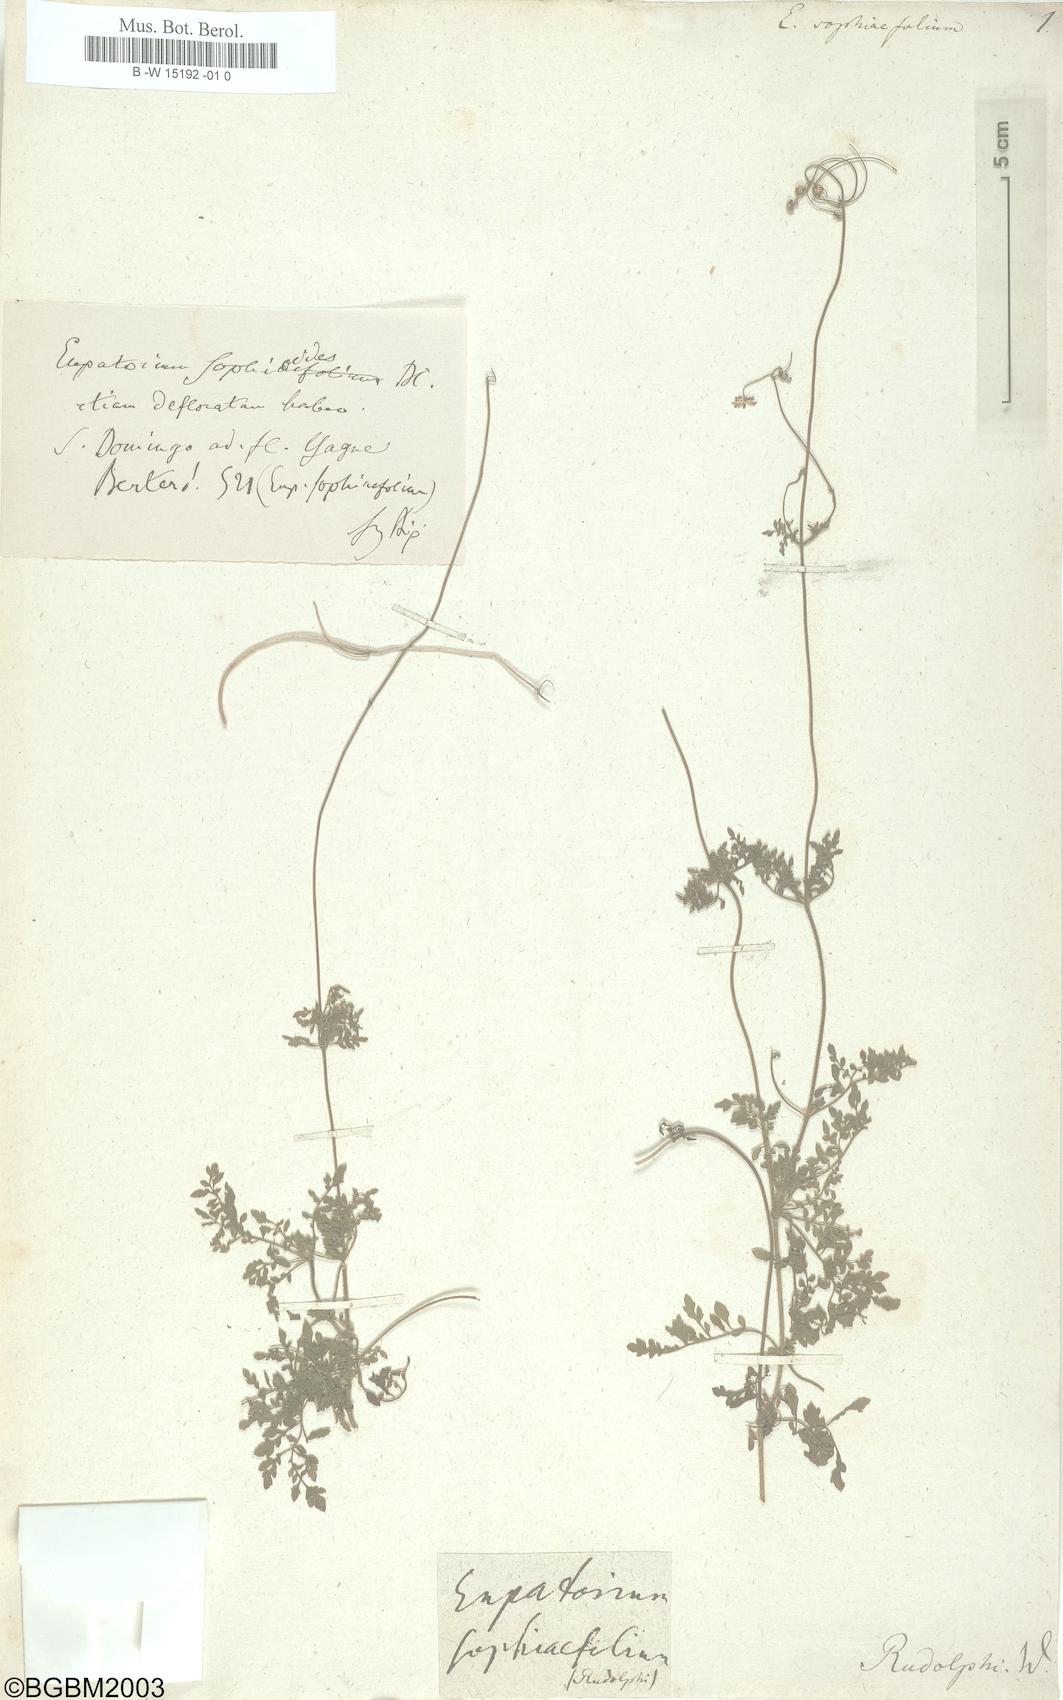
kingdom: Plantae
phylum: Tracheophyta
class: Magnoliopsida
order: Asterales
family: Asteraceae
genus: Eupatorina
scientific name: Eupatorina sophiifolia
